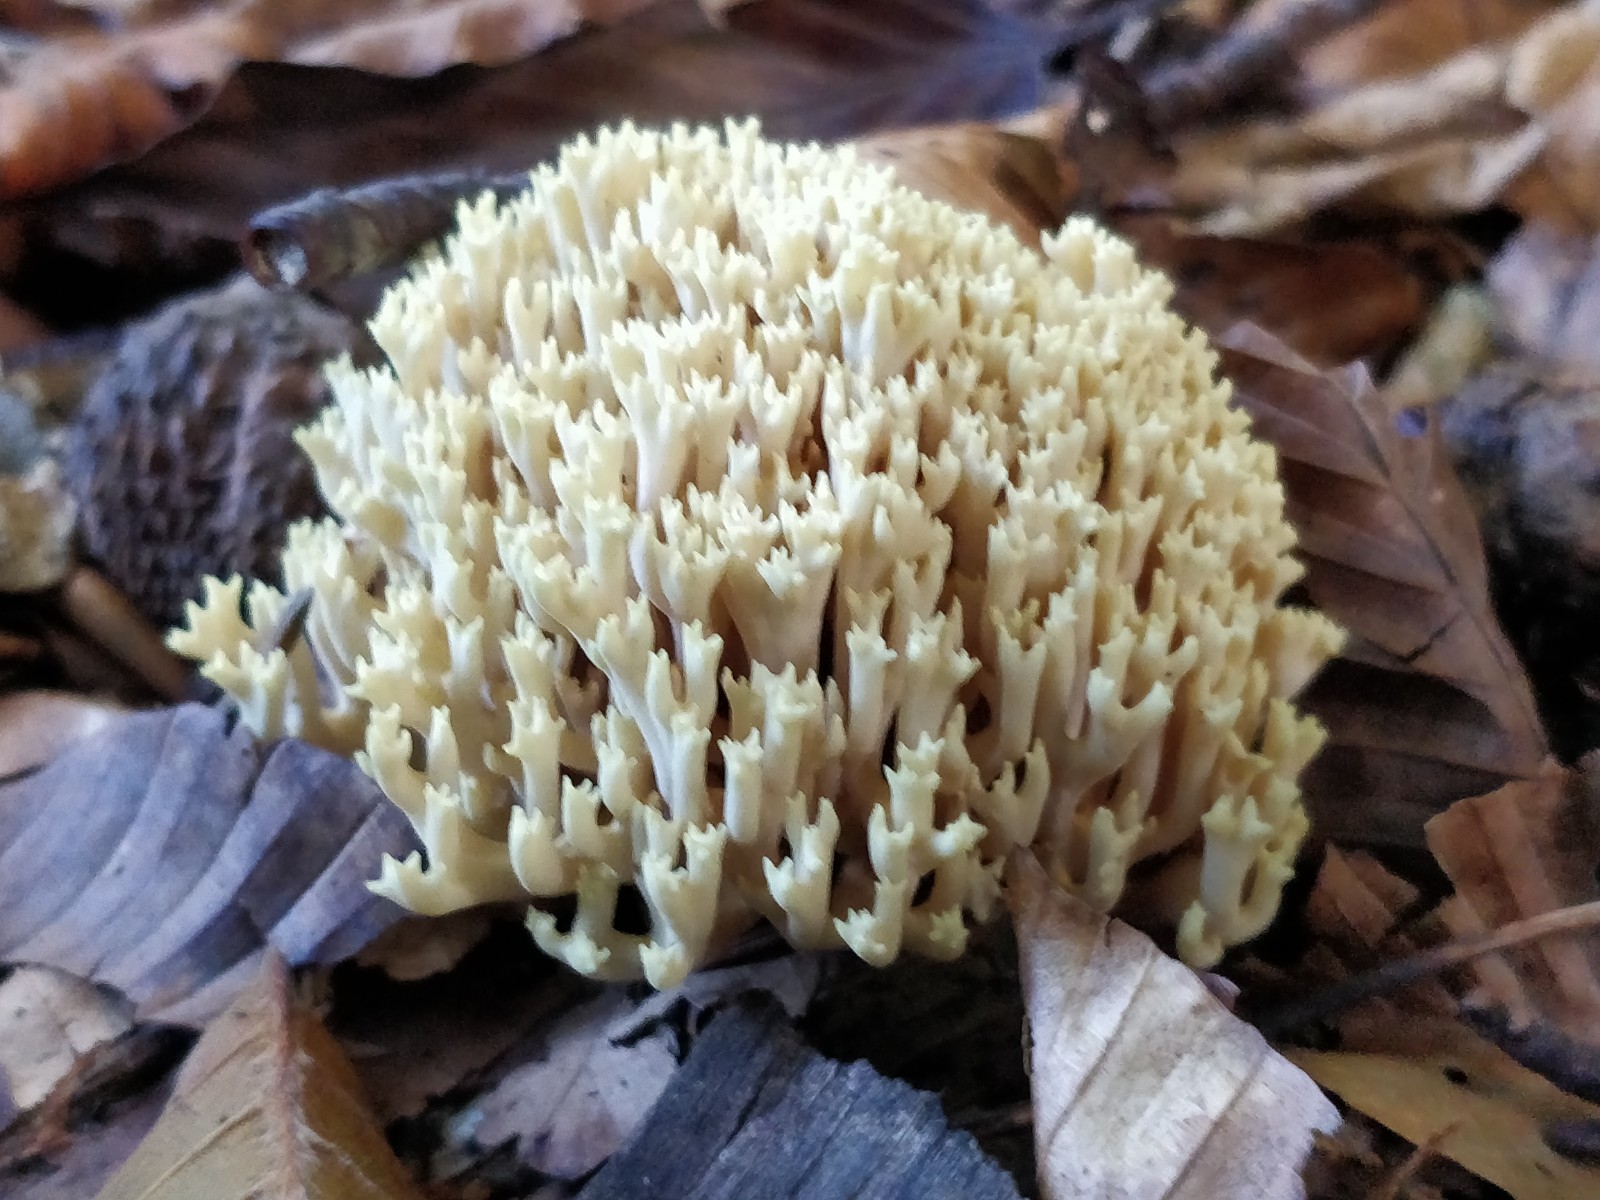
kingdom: Fungi
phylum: Basidiomycota
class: Agaricomycetes
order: Gomphales
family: Gomphaceae
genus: Ramaria
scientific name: Ramaria stricta
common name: rank koralsvamp
